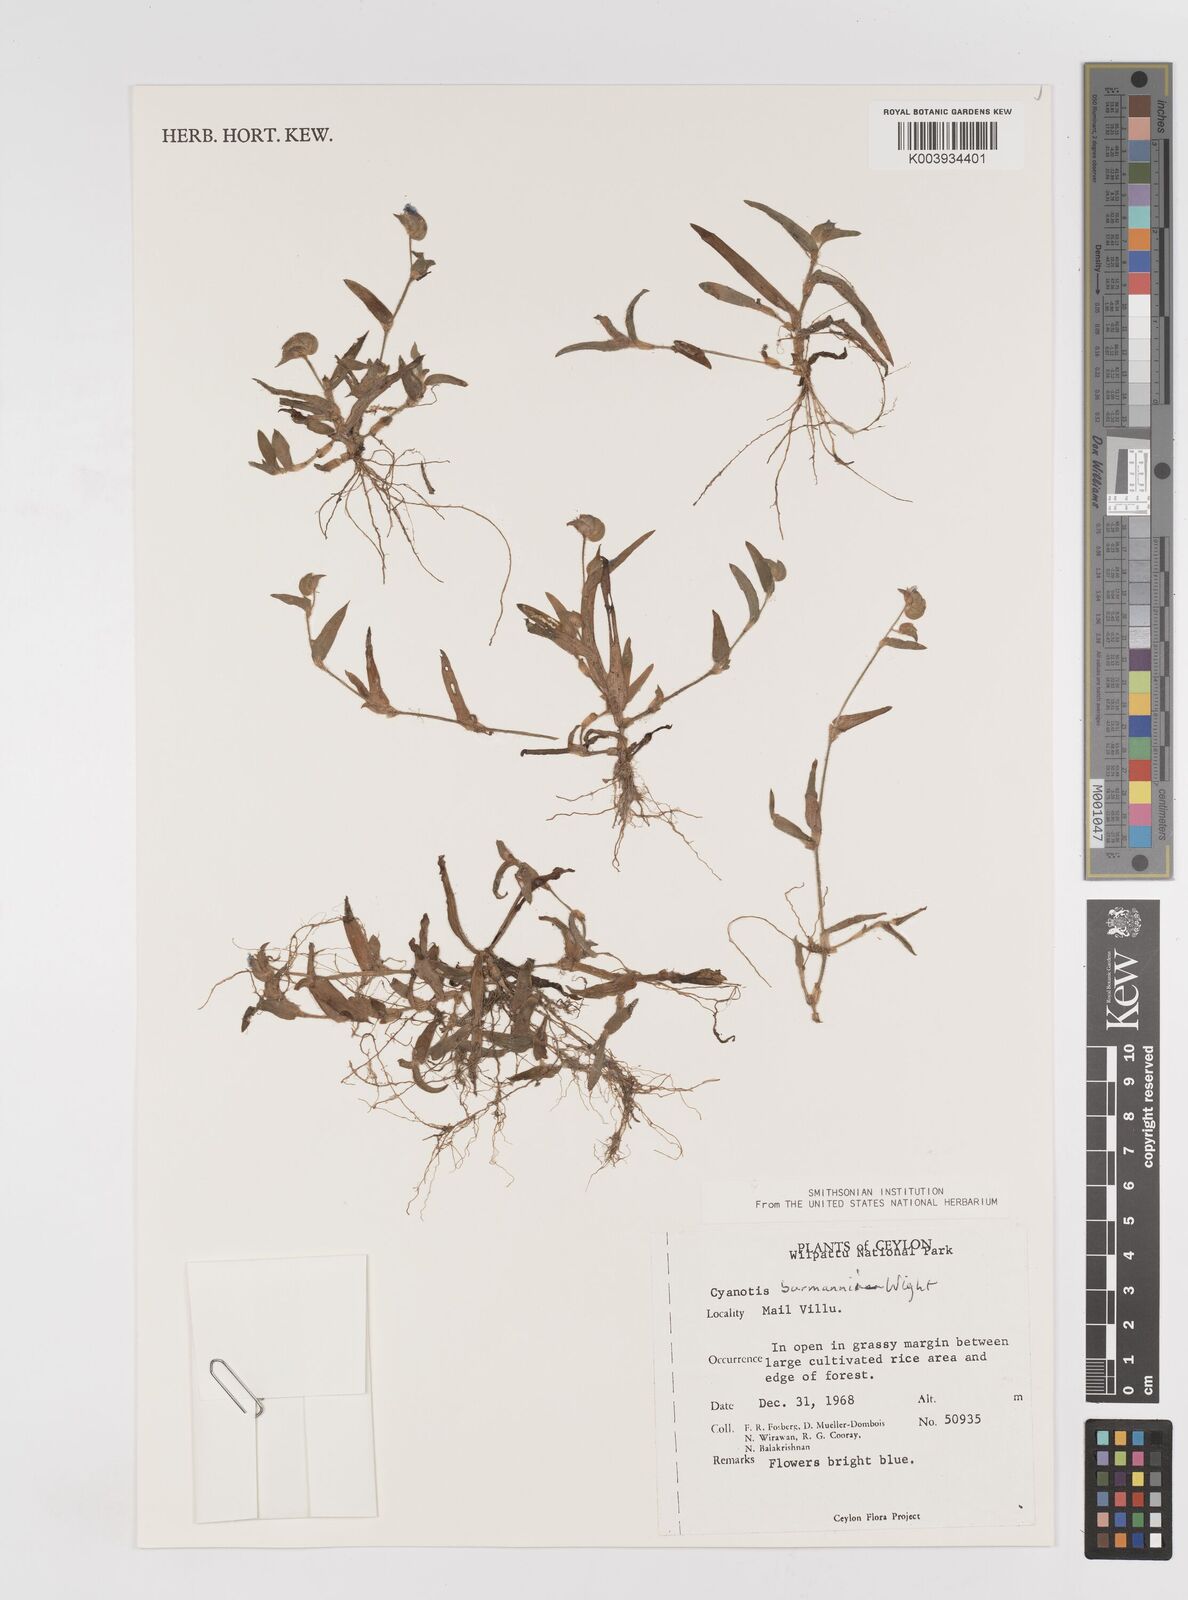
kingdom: Plantae
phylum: Tracheophyta
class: Liliopsida
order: Commelinales
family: Commelinaceae
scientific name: Commelinaceae
